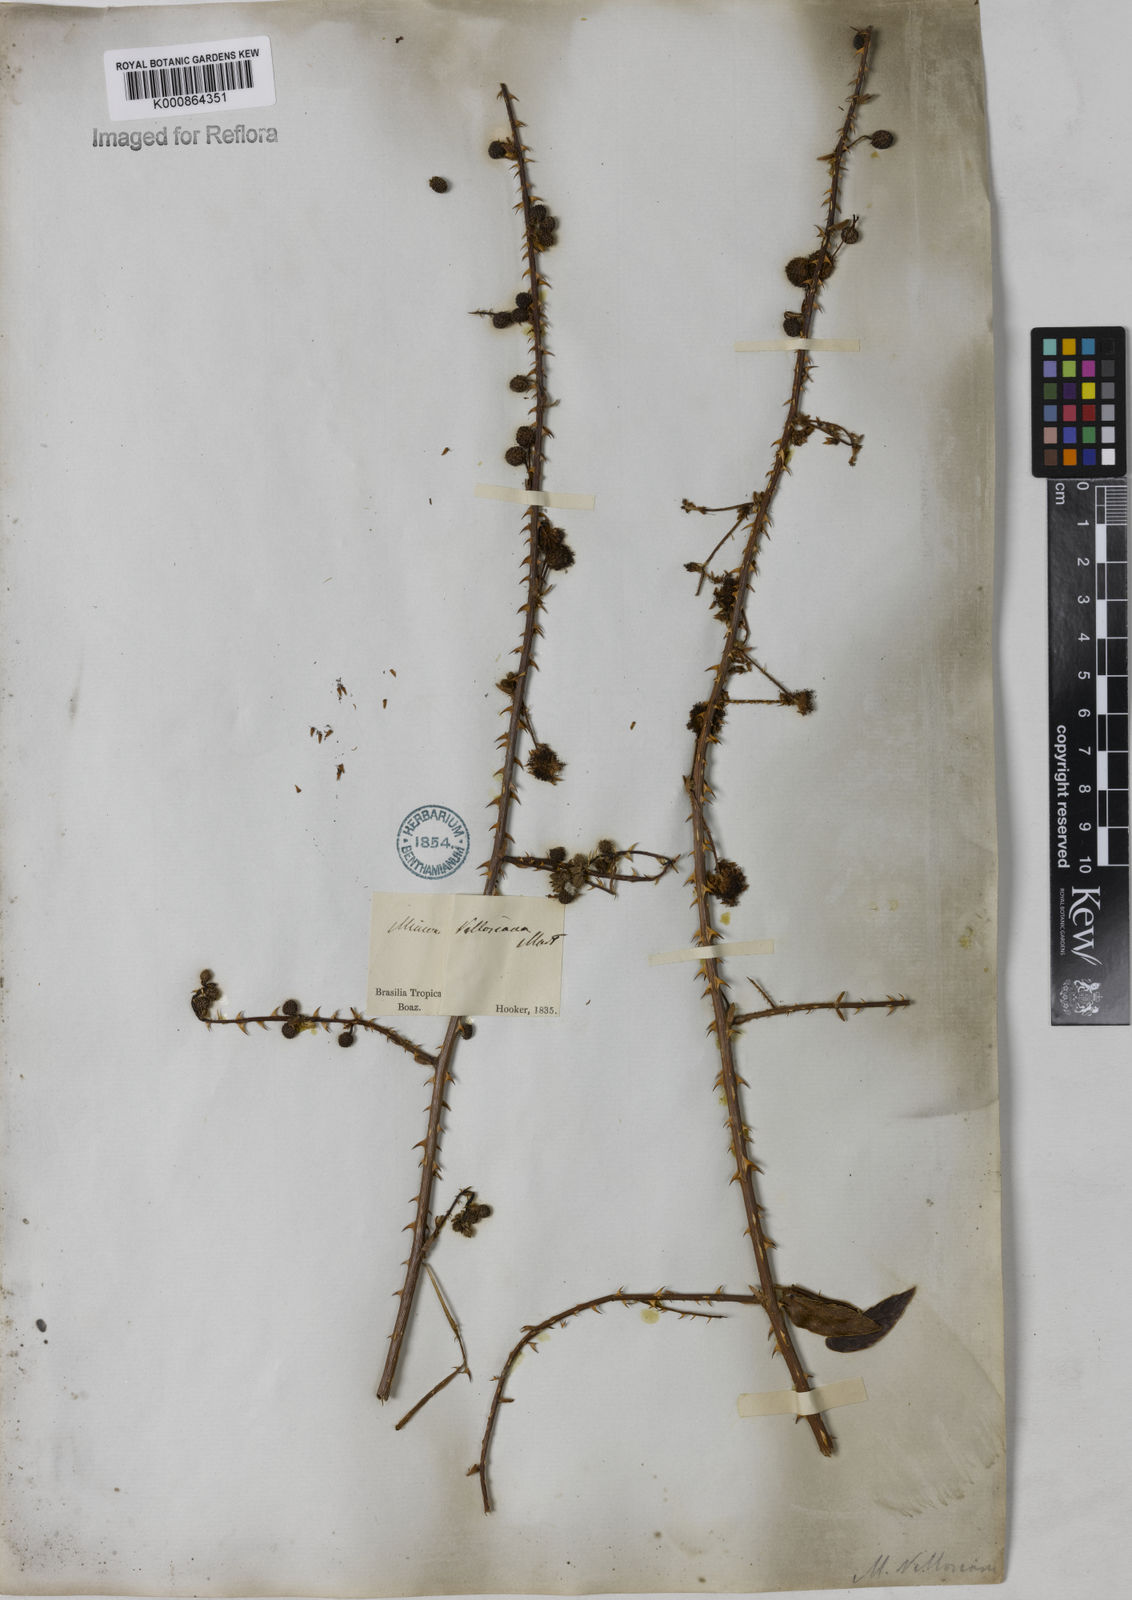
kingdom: Plantae
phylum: Tracheophyta
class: Magnoliopsida
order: Fabales
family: Fabaceae
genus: Mimosa
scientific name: Mimosa velloziana
